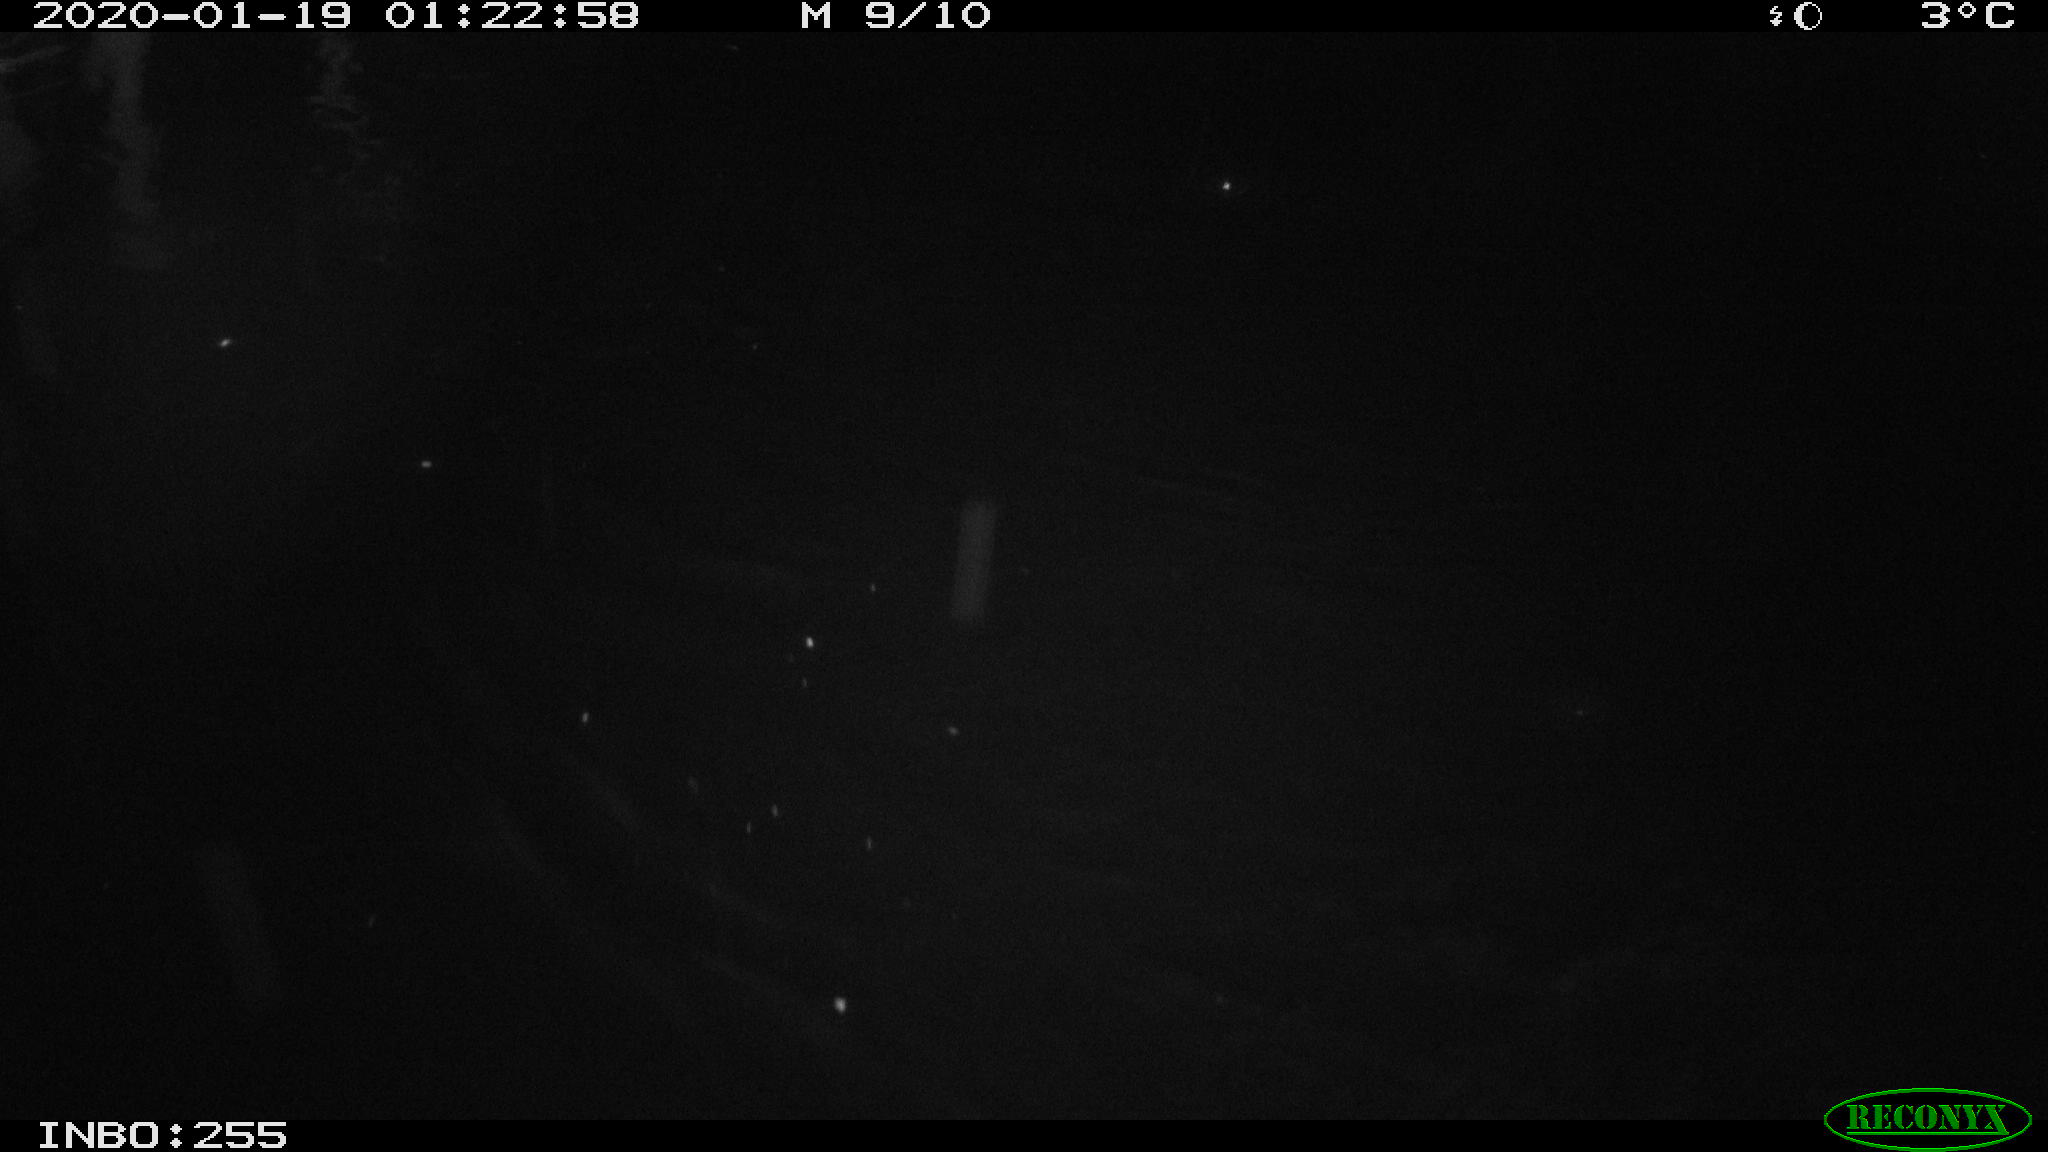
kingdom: Animalia
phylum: Chordata
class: Aves
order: Gruiformes
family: Rallidae
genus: Gallinula
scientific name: Gallinula chloropus
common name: Common moorhen
